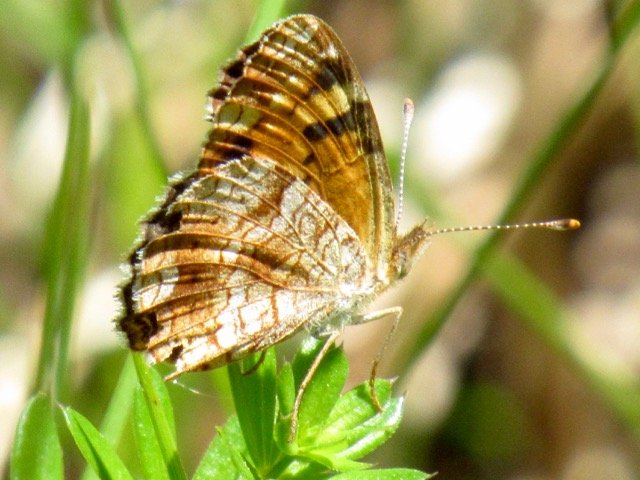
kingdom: Animalia
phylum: Arthropoda
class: Insecta
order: Lepidoptera
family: Nymphalidae
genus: Phyciodes
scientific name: Phyciodes tharos
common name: Pearl Crescent
